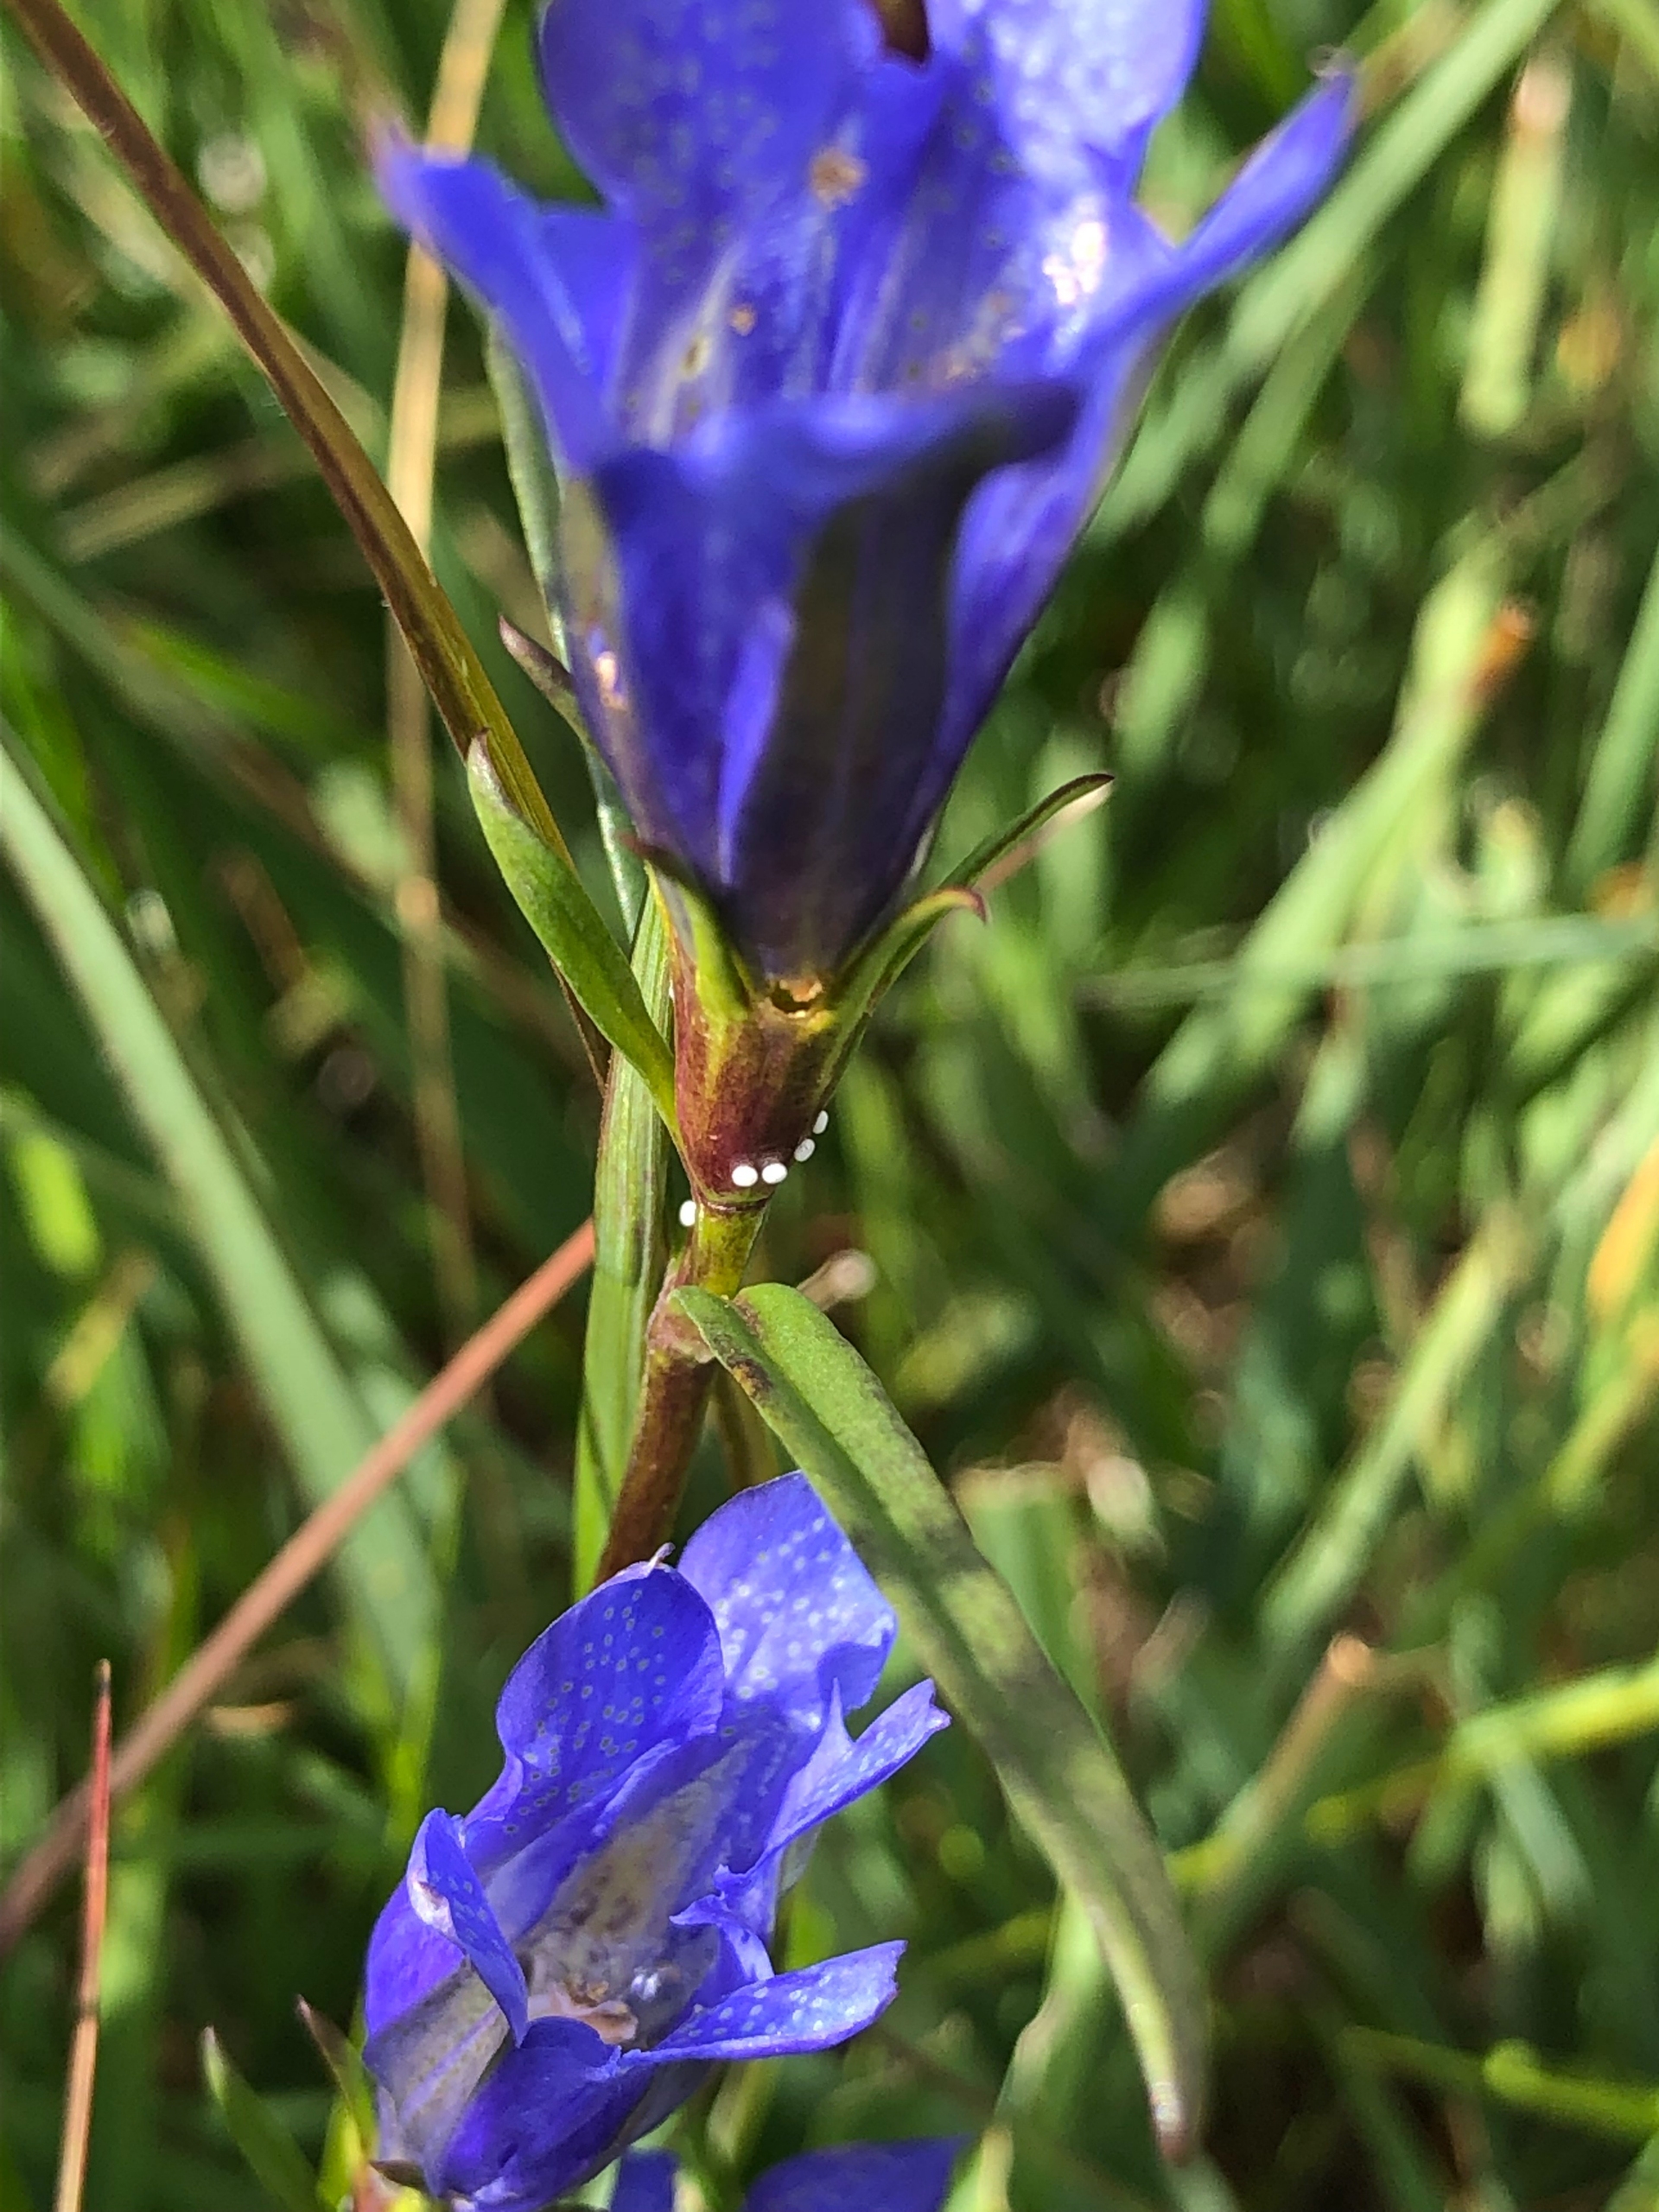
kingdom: Plantae
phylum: Tracheophyta
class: Magnoliopsida
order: Gentianales
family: Gentianaceae
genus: Gentiana
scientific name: Gentiana pneumonanthe
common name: Klokke-ensian
